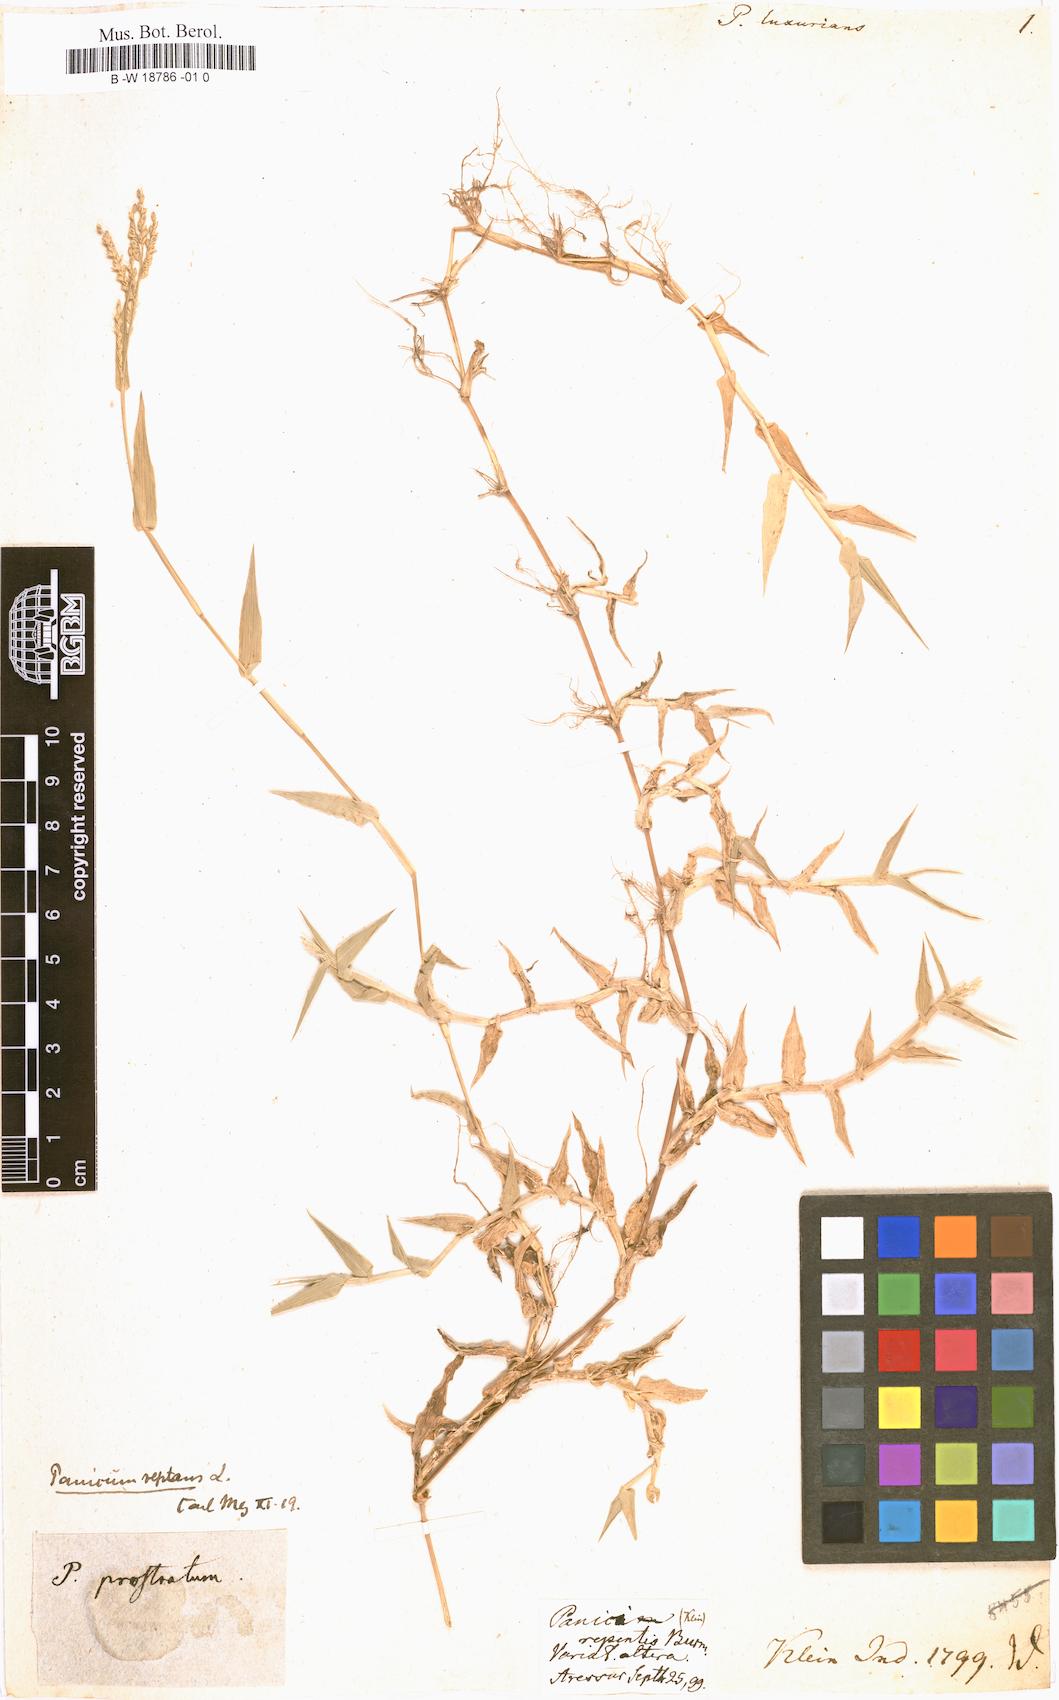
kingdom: Plantae
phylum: Tracheophyta
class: Liliopsida
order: Poales
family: Poaceae
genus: Panicum
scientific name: Panicum luxurians
